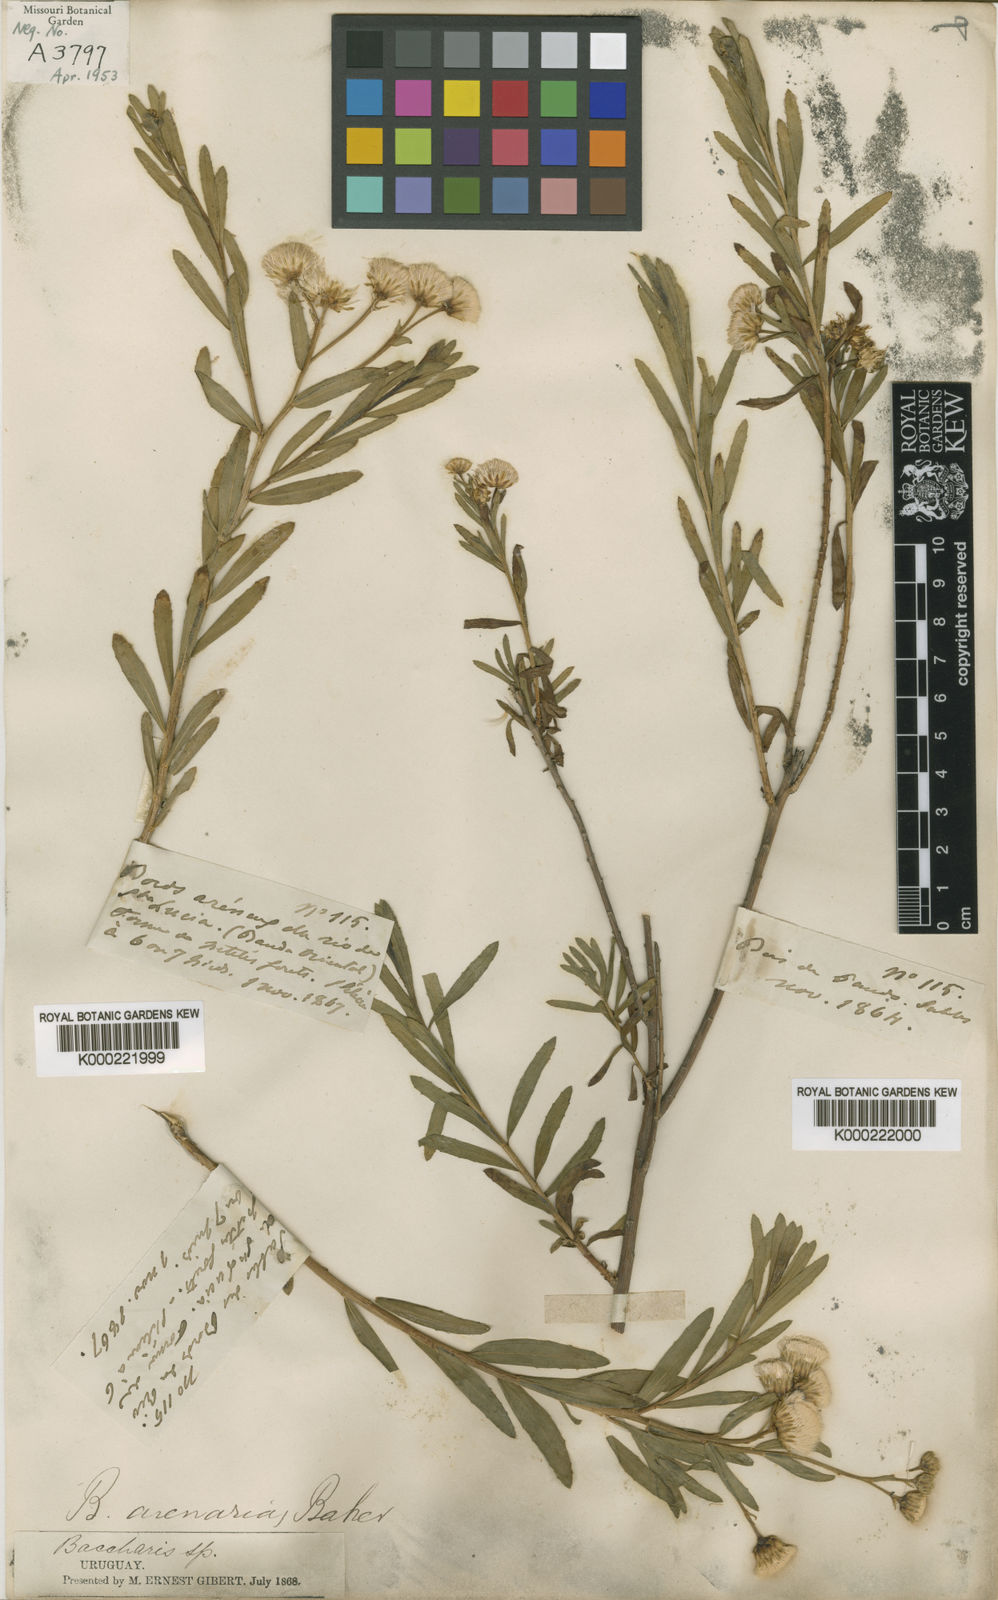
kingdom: Plantae
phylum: Tracheophyta
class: Magnoliopsida
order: Asterales
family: Asteraceae
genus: Baccharis
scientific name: Baccharis arenaria
